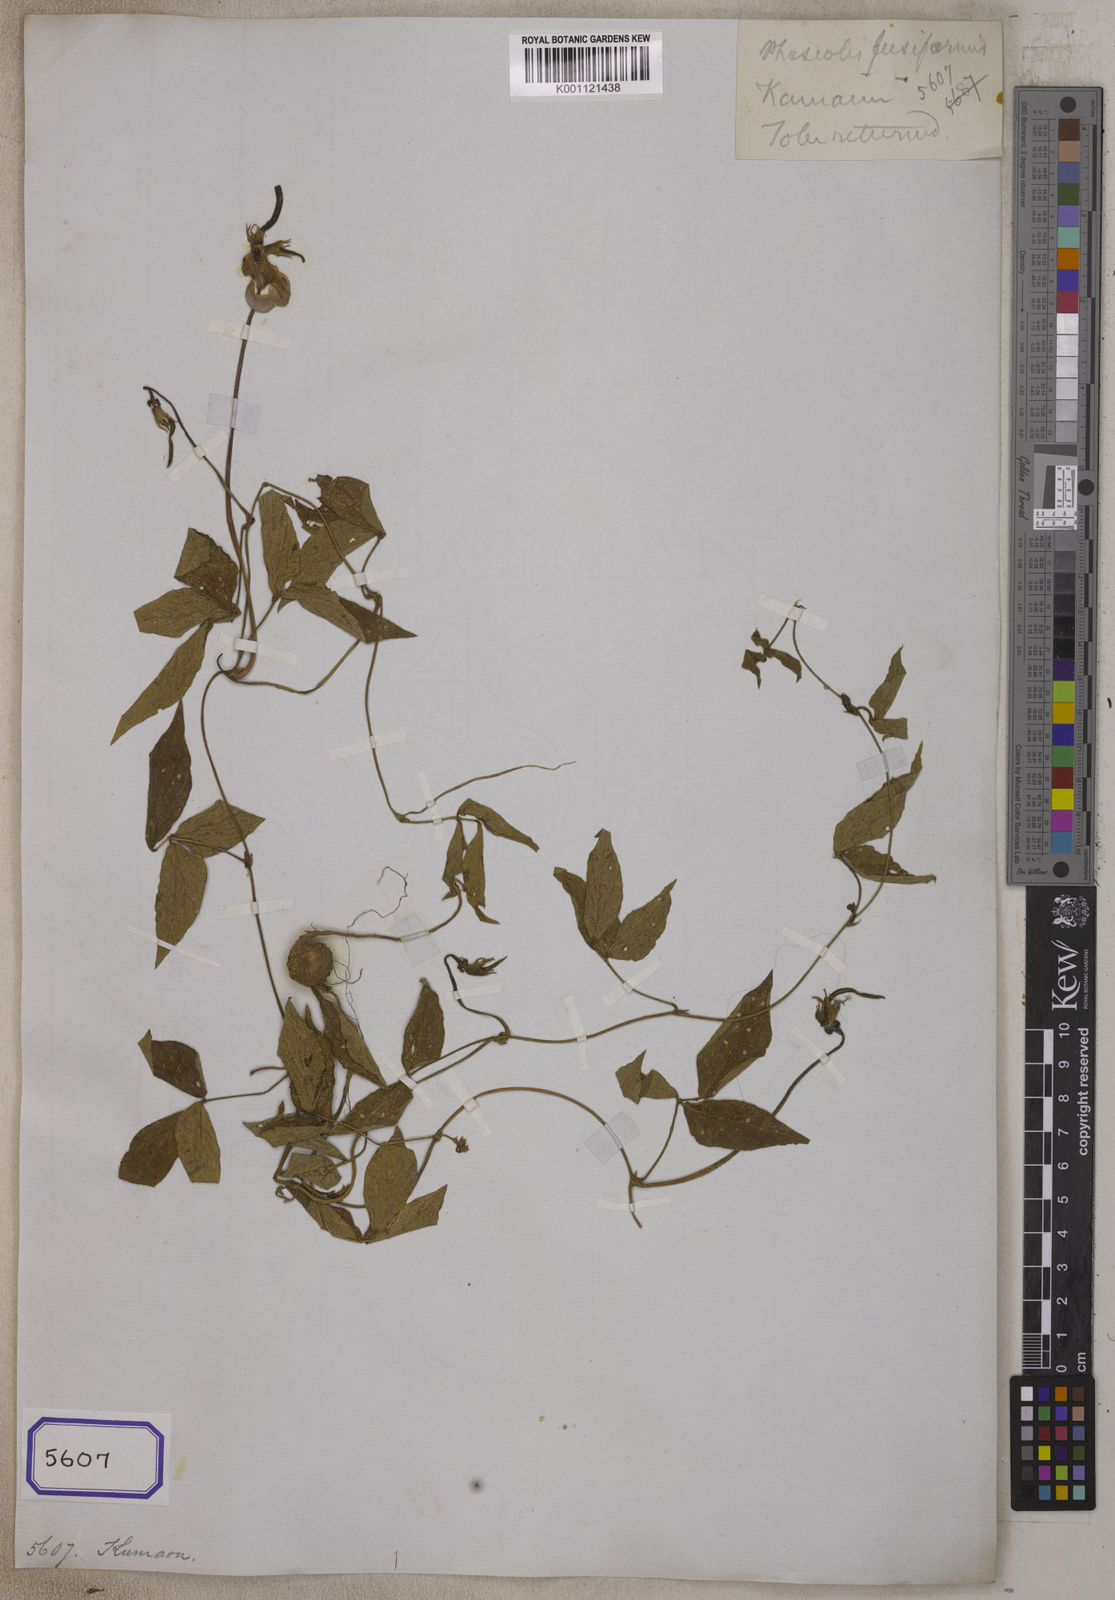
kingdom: Plantae
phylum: Tracheophyta
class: Magnoliopsida
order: Fabales
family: Fabaceae
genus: Vigna
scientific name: Vigna vexillata
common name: Zombi pea
